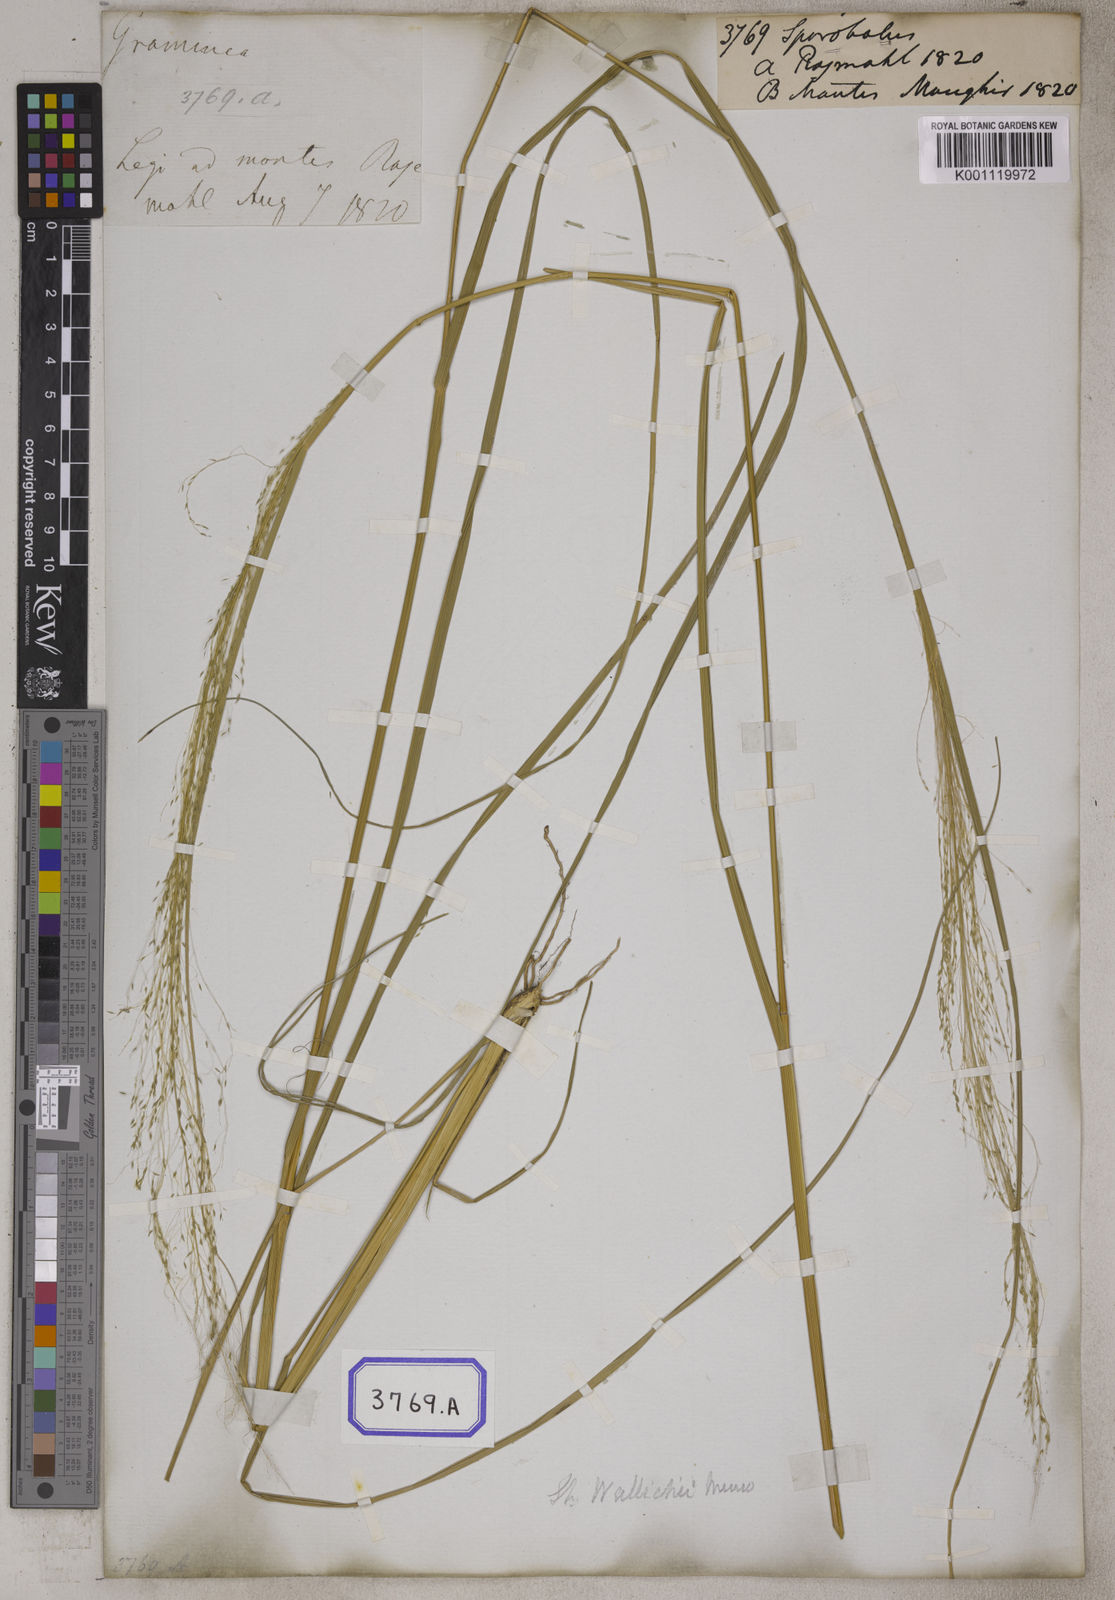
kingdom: Plantae
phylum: Tracheophyta
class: Liliopsida
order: Poales
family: Poaceae
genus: Sporobolus
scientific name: Sporobolus
